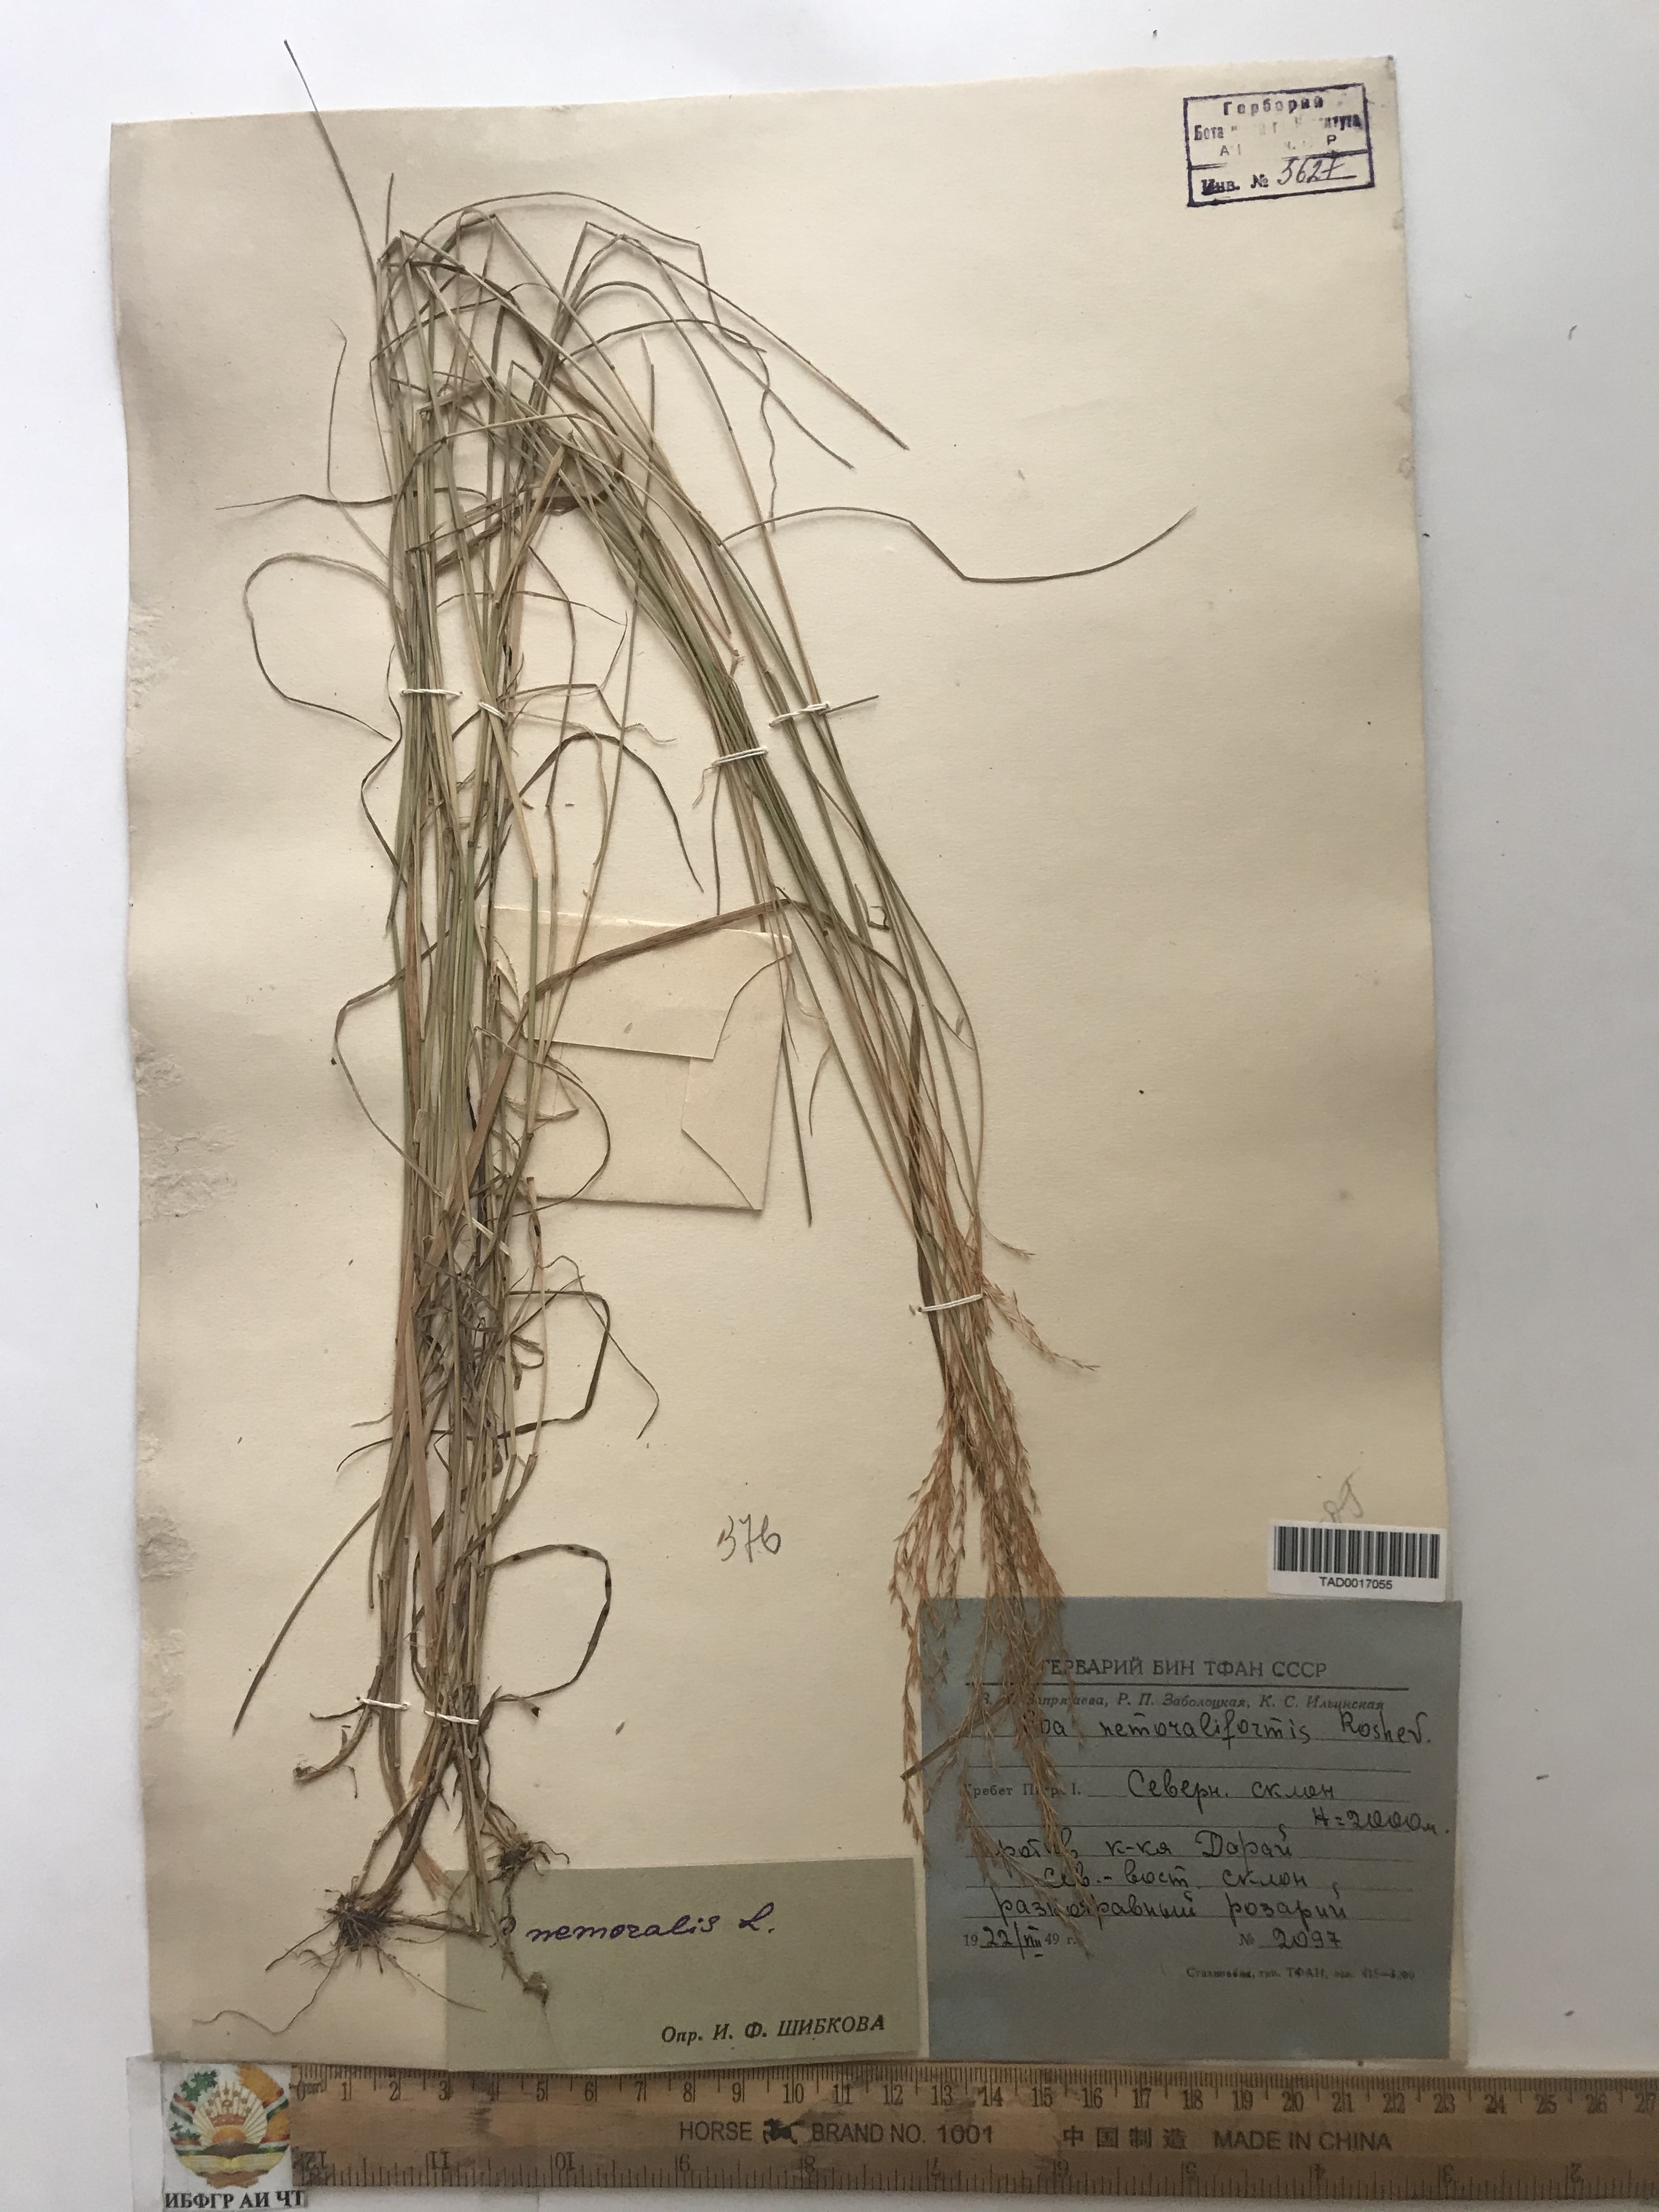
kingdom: Plantae
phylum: Tracheophyta
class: Liliopsida
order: Poales
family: Poaceae
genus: Poa
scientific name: Poa nemoraliformis
